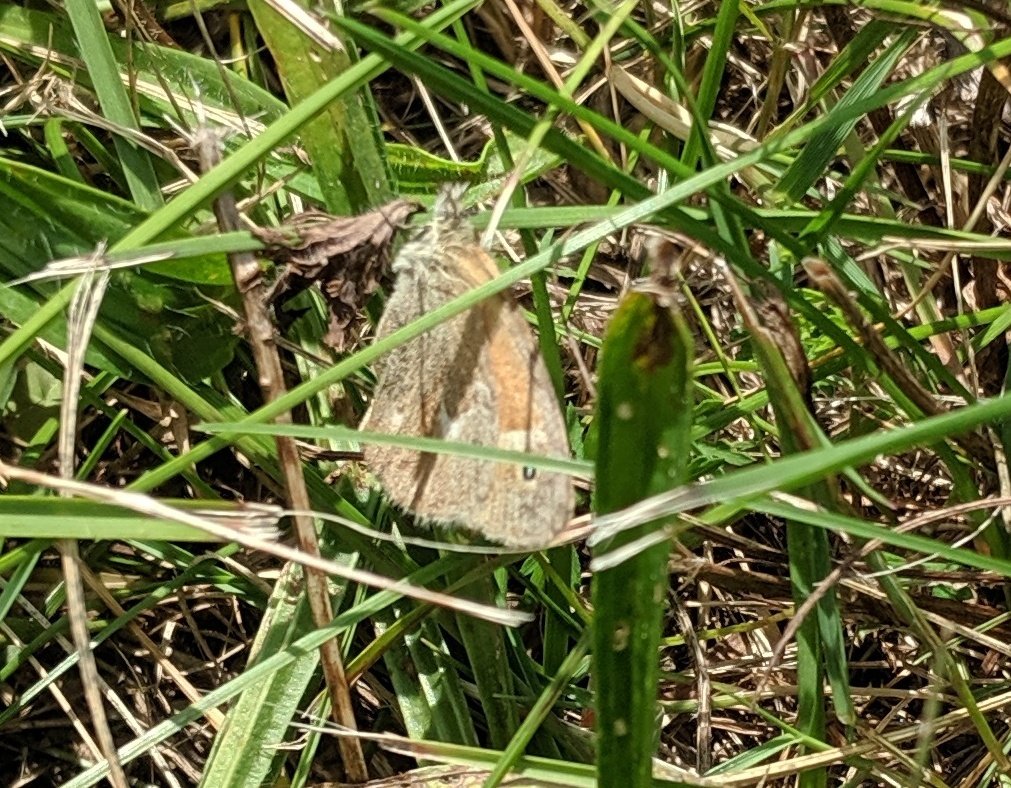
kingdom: Animalia
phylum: Arthropoda
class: Insecta
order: Lepidoptera
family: Nymphalidae
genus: Coenonympha
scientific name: Coenonympha tullia
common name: Large Heath
